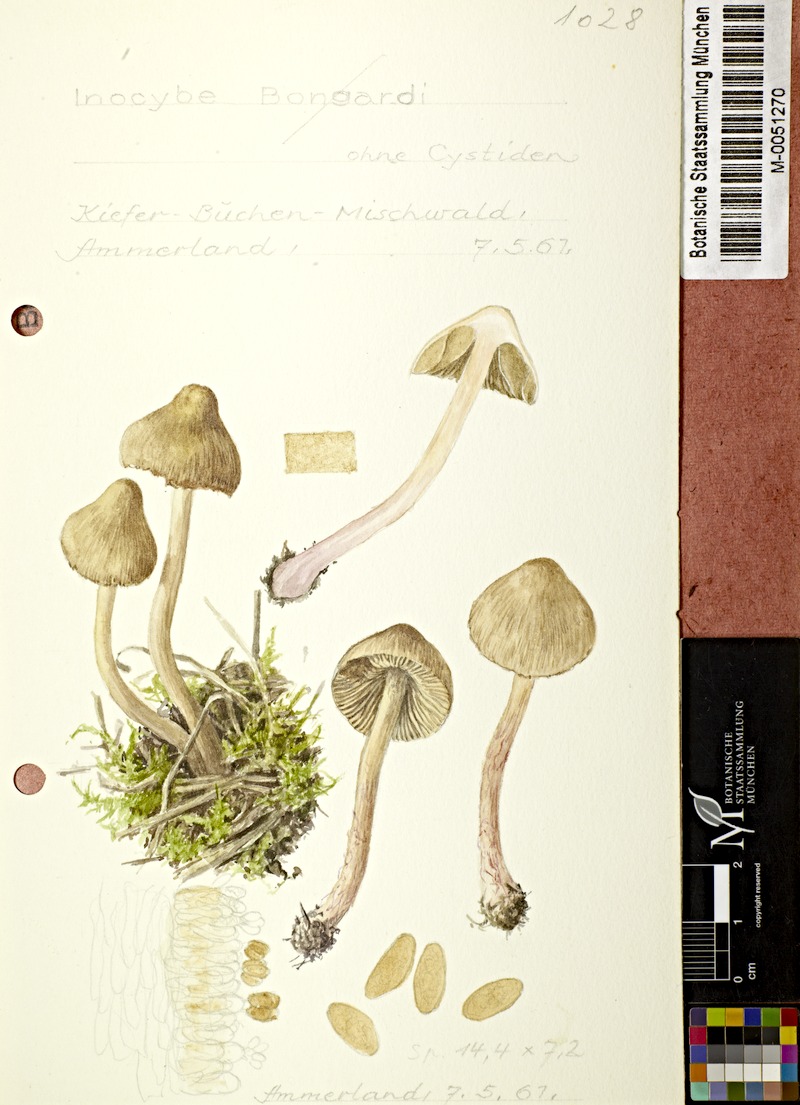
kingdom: Fungi
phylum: Basidiomycota
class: Agaricomycetes
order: Agaricales
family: Inocybaceae
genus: Inosperma
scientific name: Inosperma bongardii
